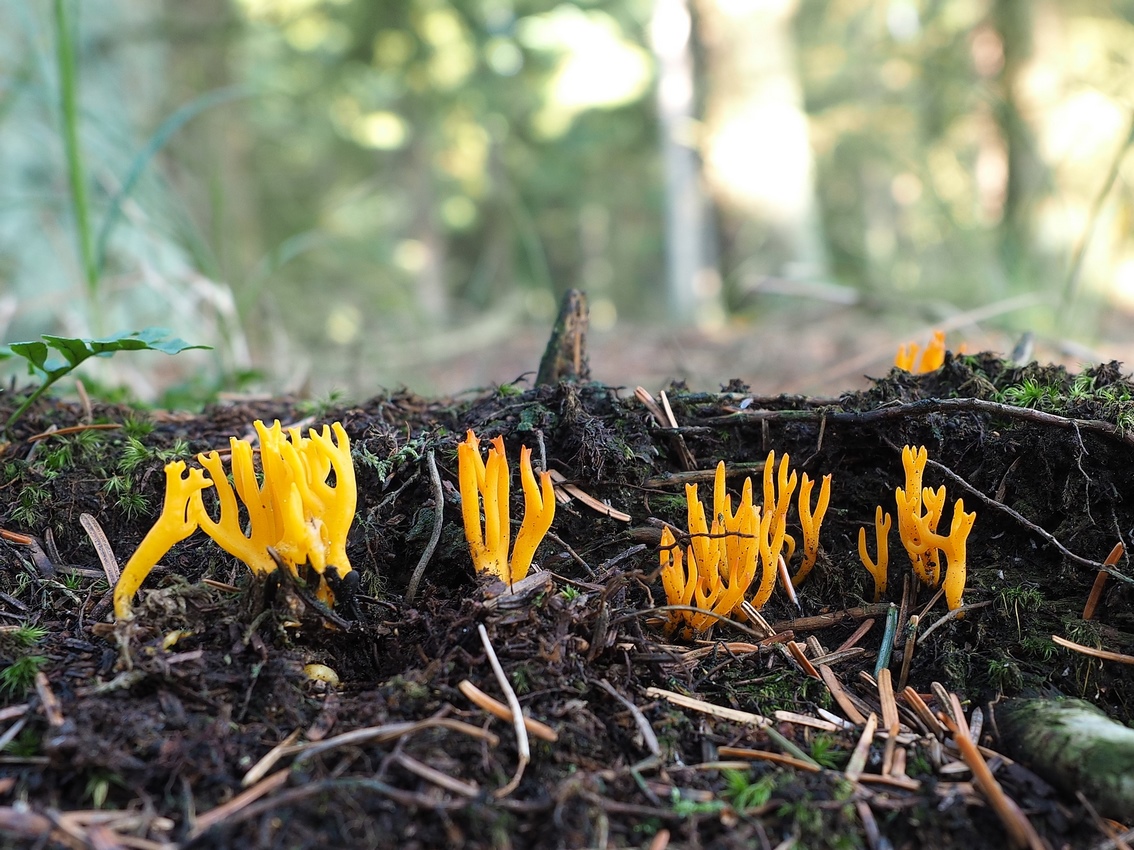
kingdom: Fungi
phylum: Basidiomycota
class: Dacrymycetes
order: Dacrymycetales
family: Dacrymycetaceae
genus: Calocera
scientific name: Calocera viscosa
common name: almindelig guldgaffel
